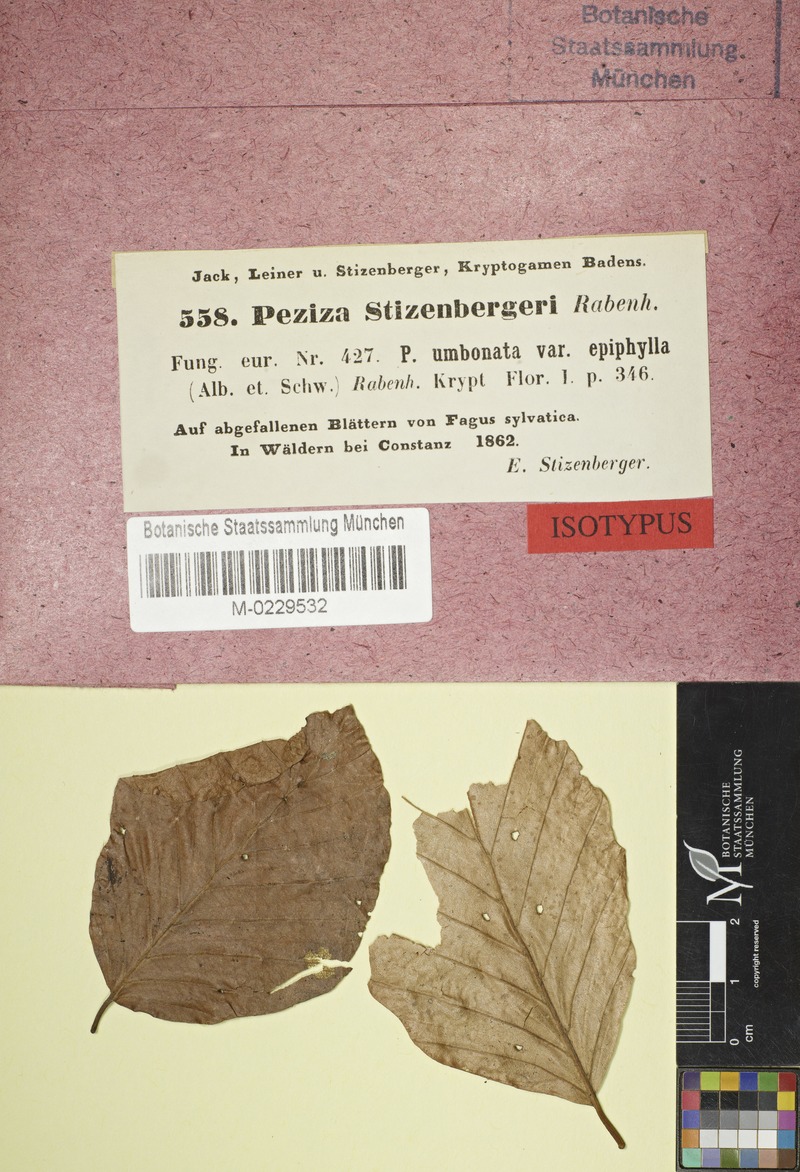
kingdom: Fungi
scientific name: Fungi
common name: Fungi
